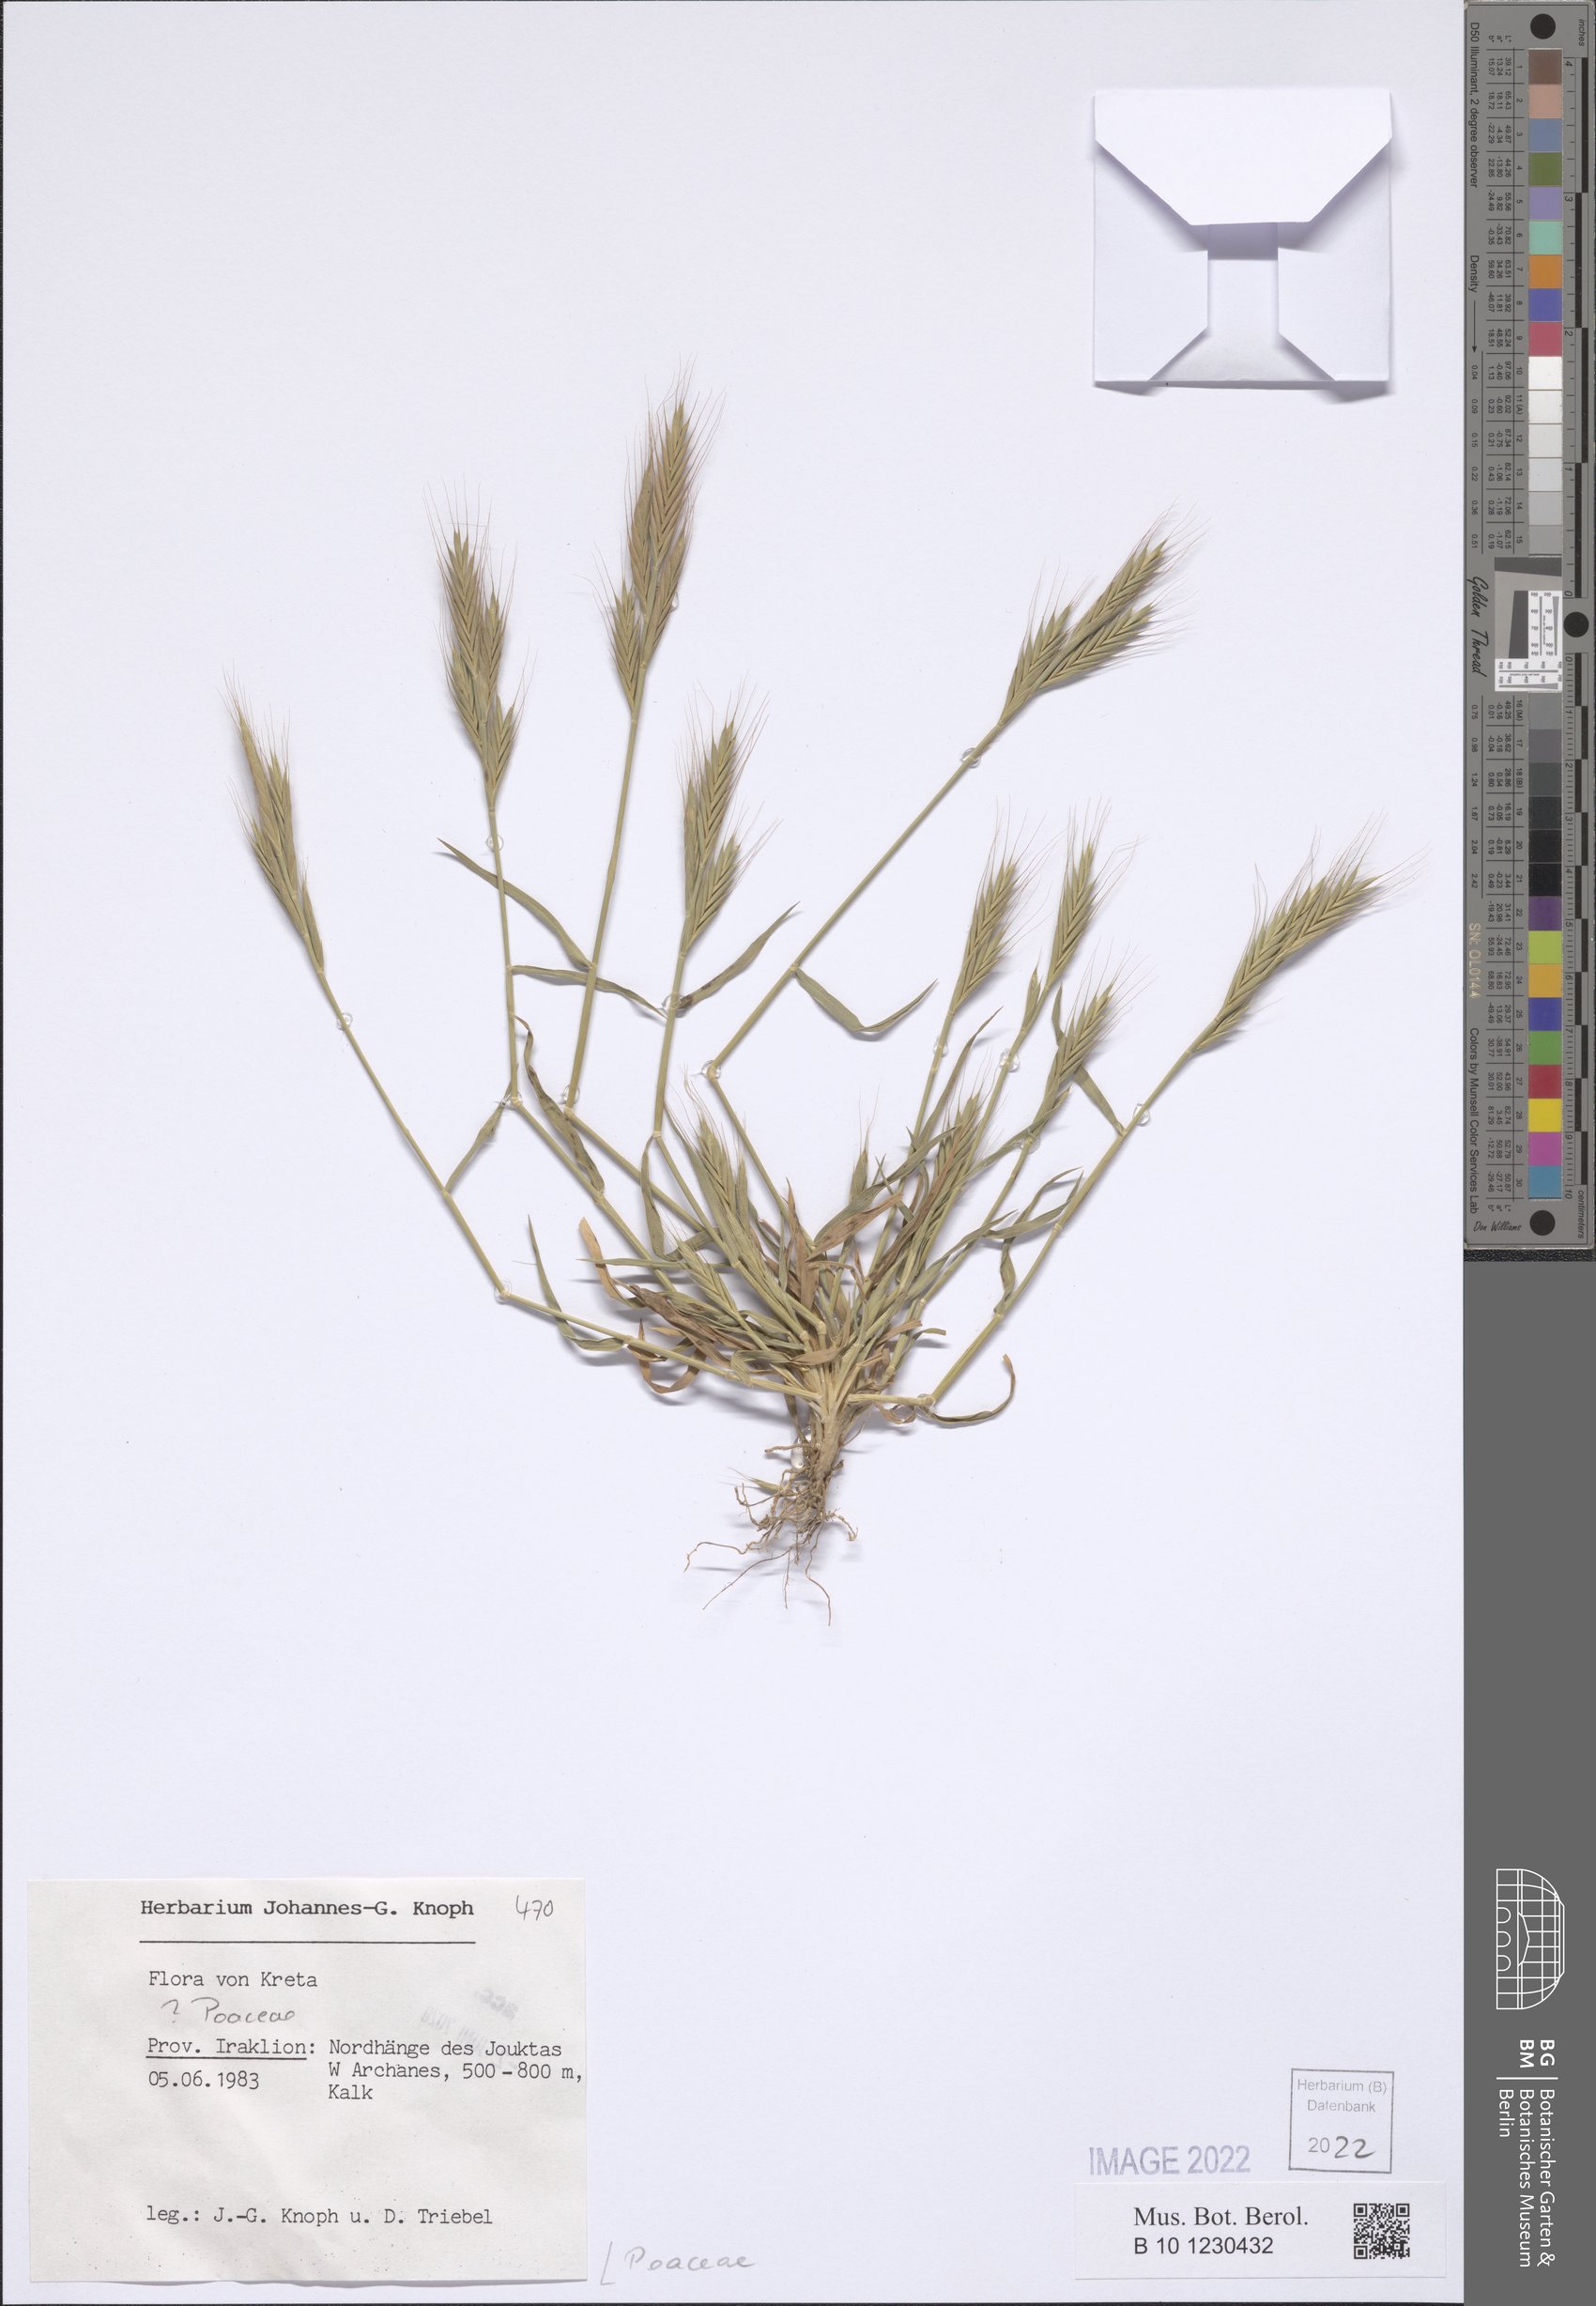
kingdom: Plantae
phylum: Tracheophyta
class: Liliopsida
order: Poales
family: Poaceae
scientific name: Poaceae
